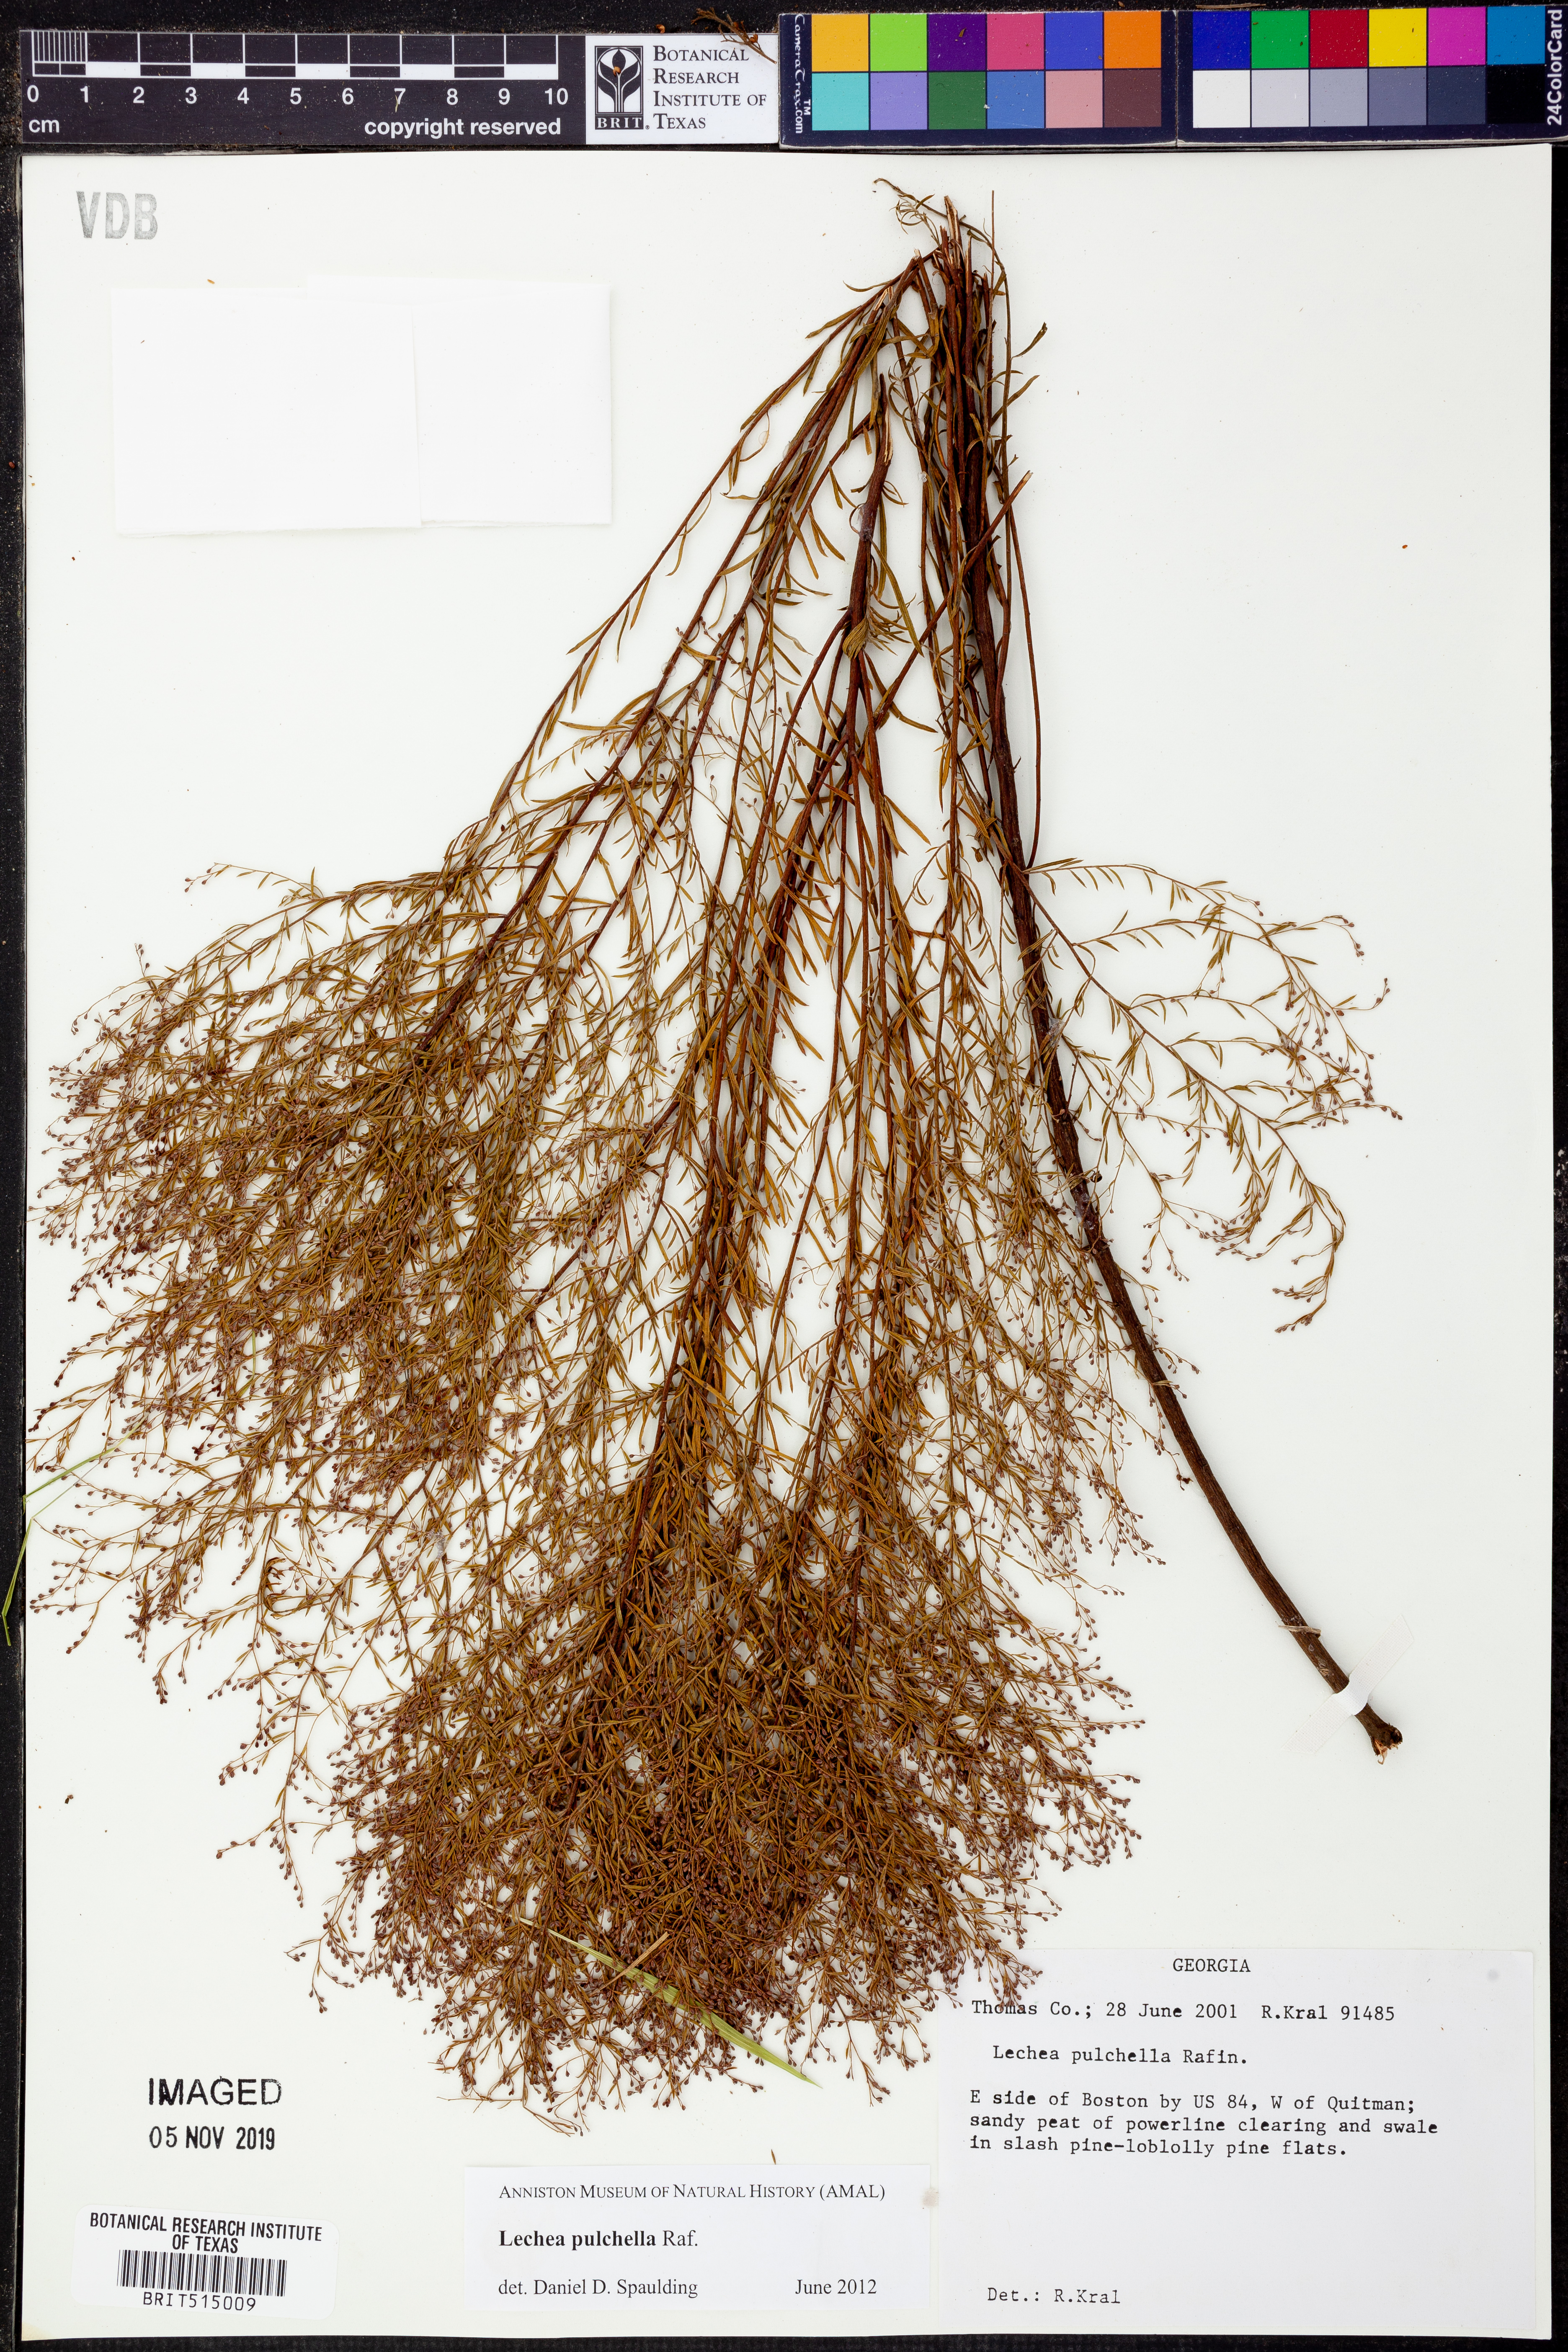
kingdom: Plantae
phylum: Tracheophyta
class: Magnoliopsida
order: Malvales
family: Cistaceae
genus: Lechea
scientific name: Lechea pulchella
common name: Leggett's pinweed
